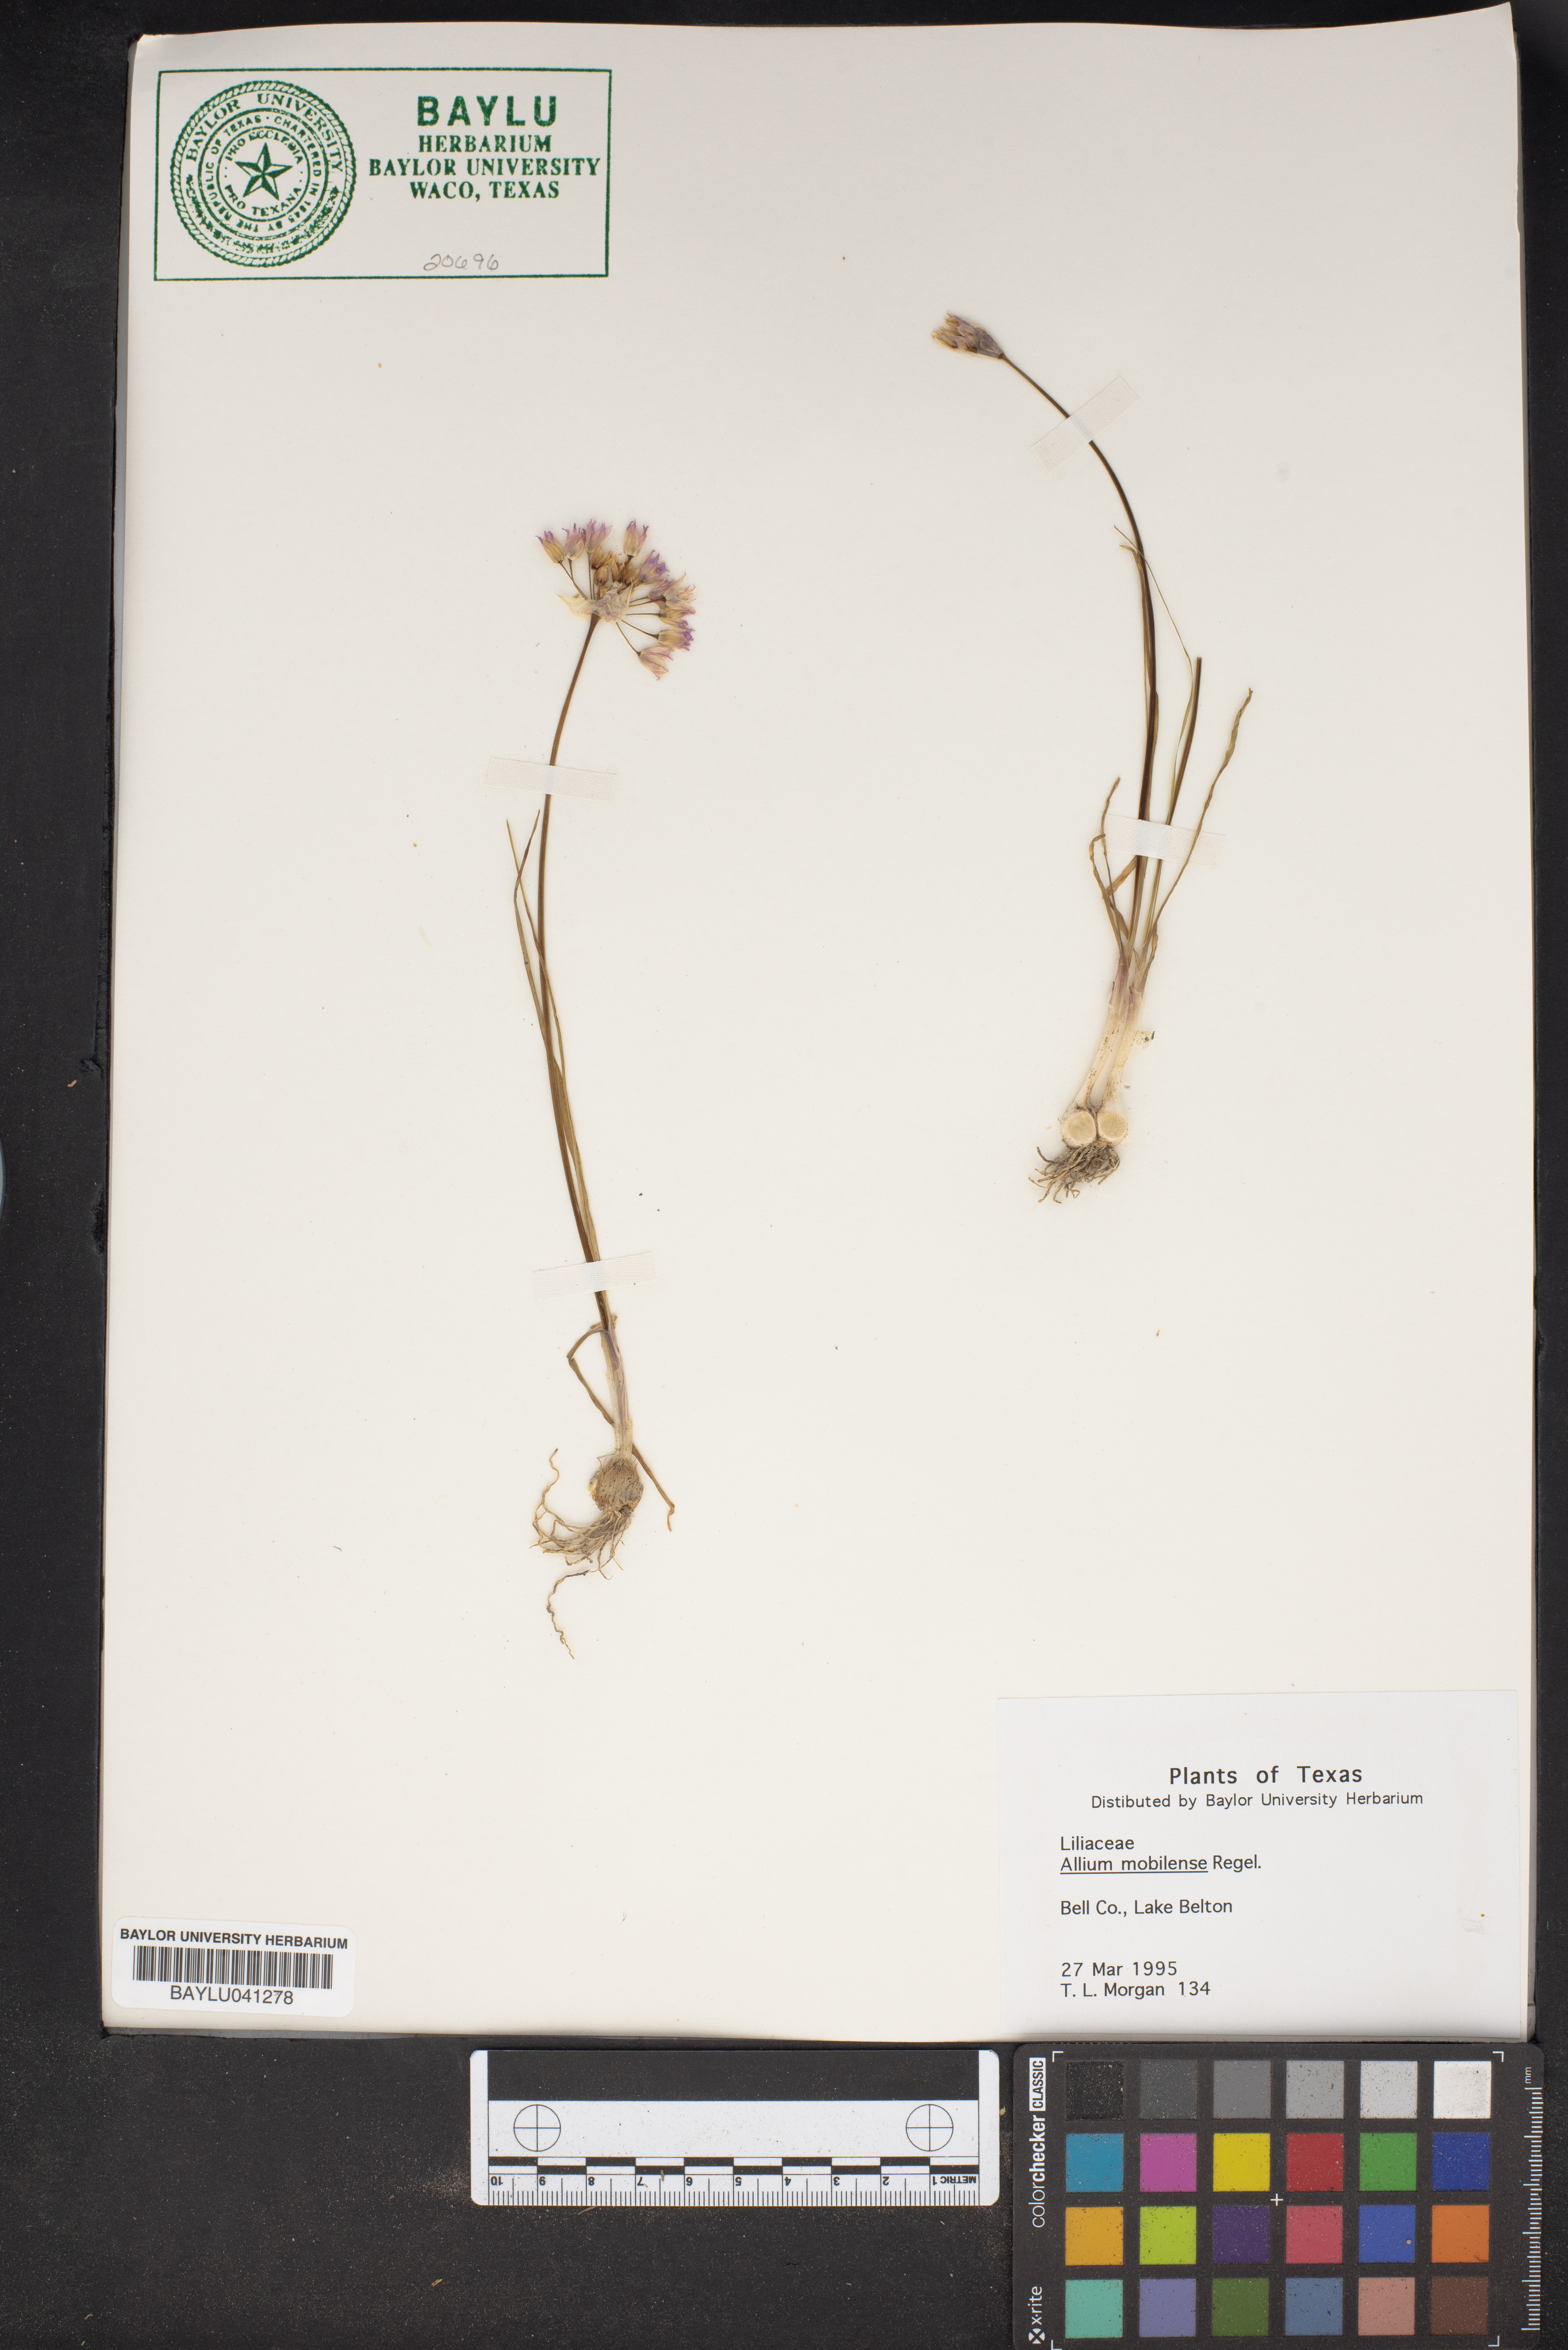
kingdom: Plantae
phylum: Tracheophyta
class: Liliopsida
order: Asparagales
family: Amaryllidaceae
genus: Allium
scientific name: Allium canadense
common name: Meadow garlic
